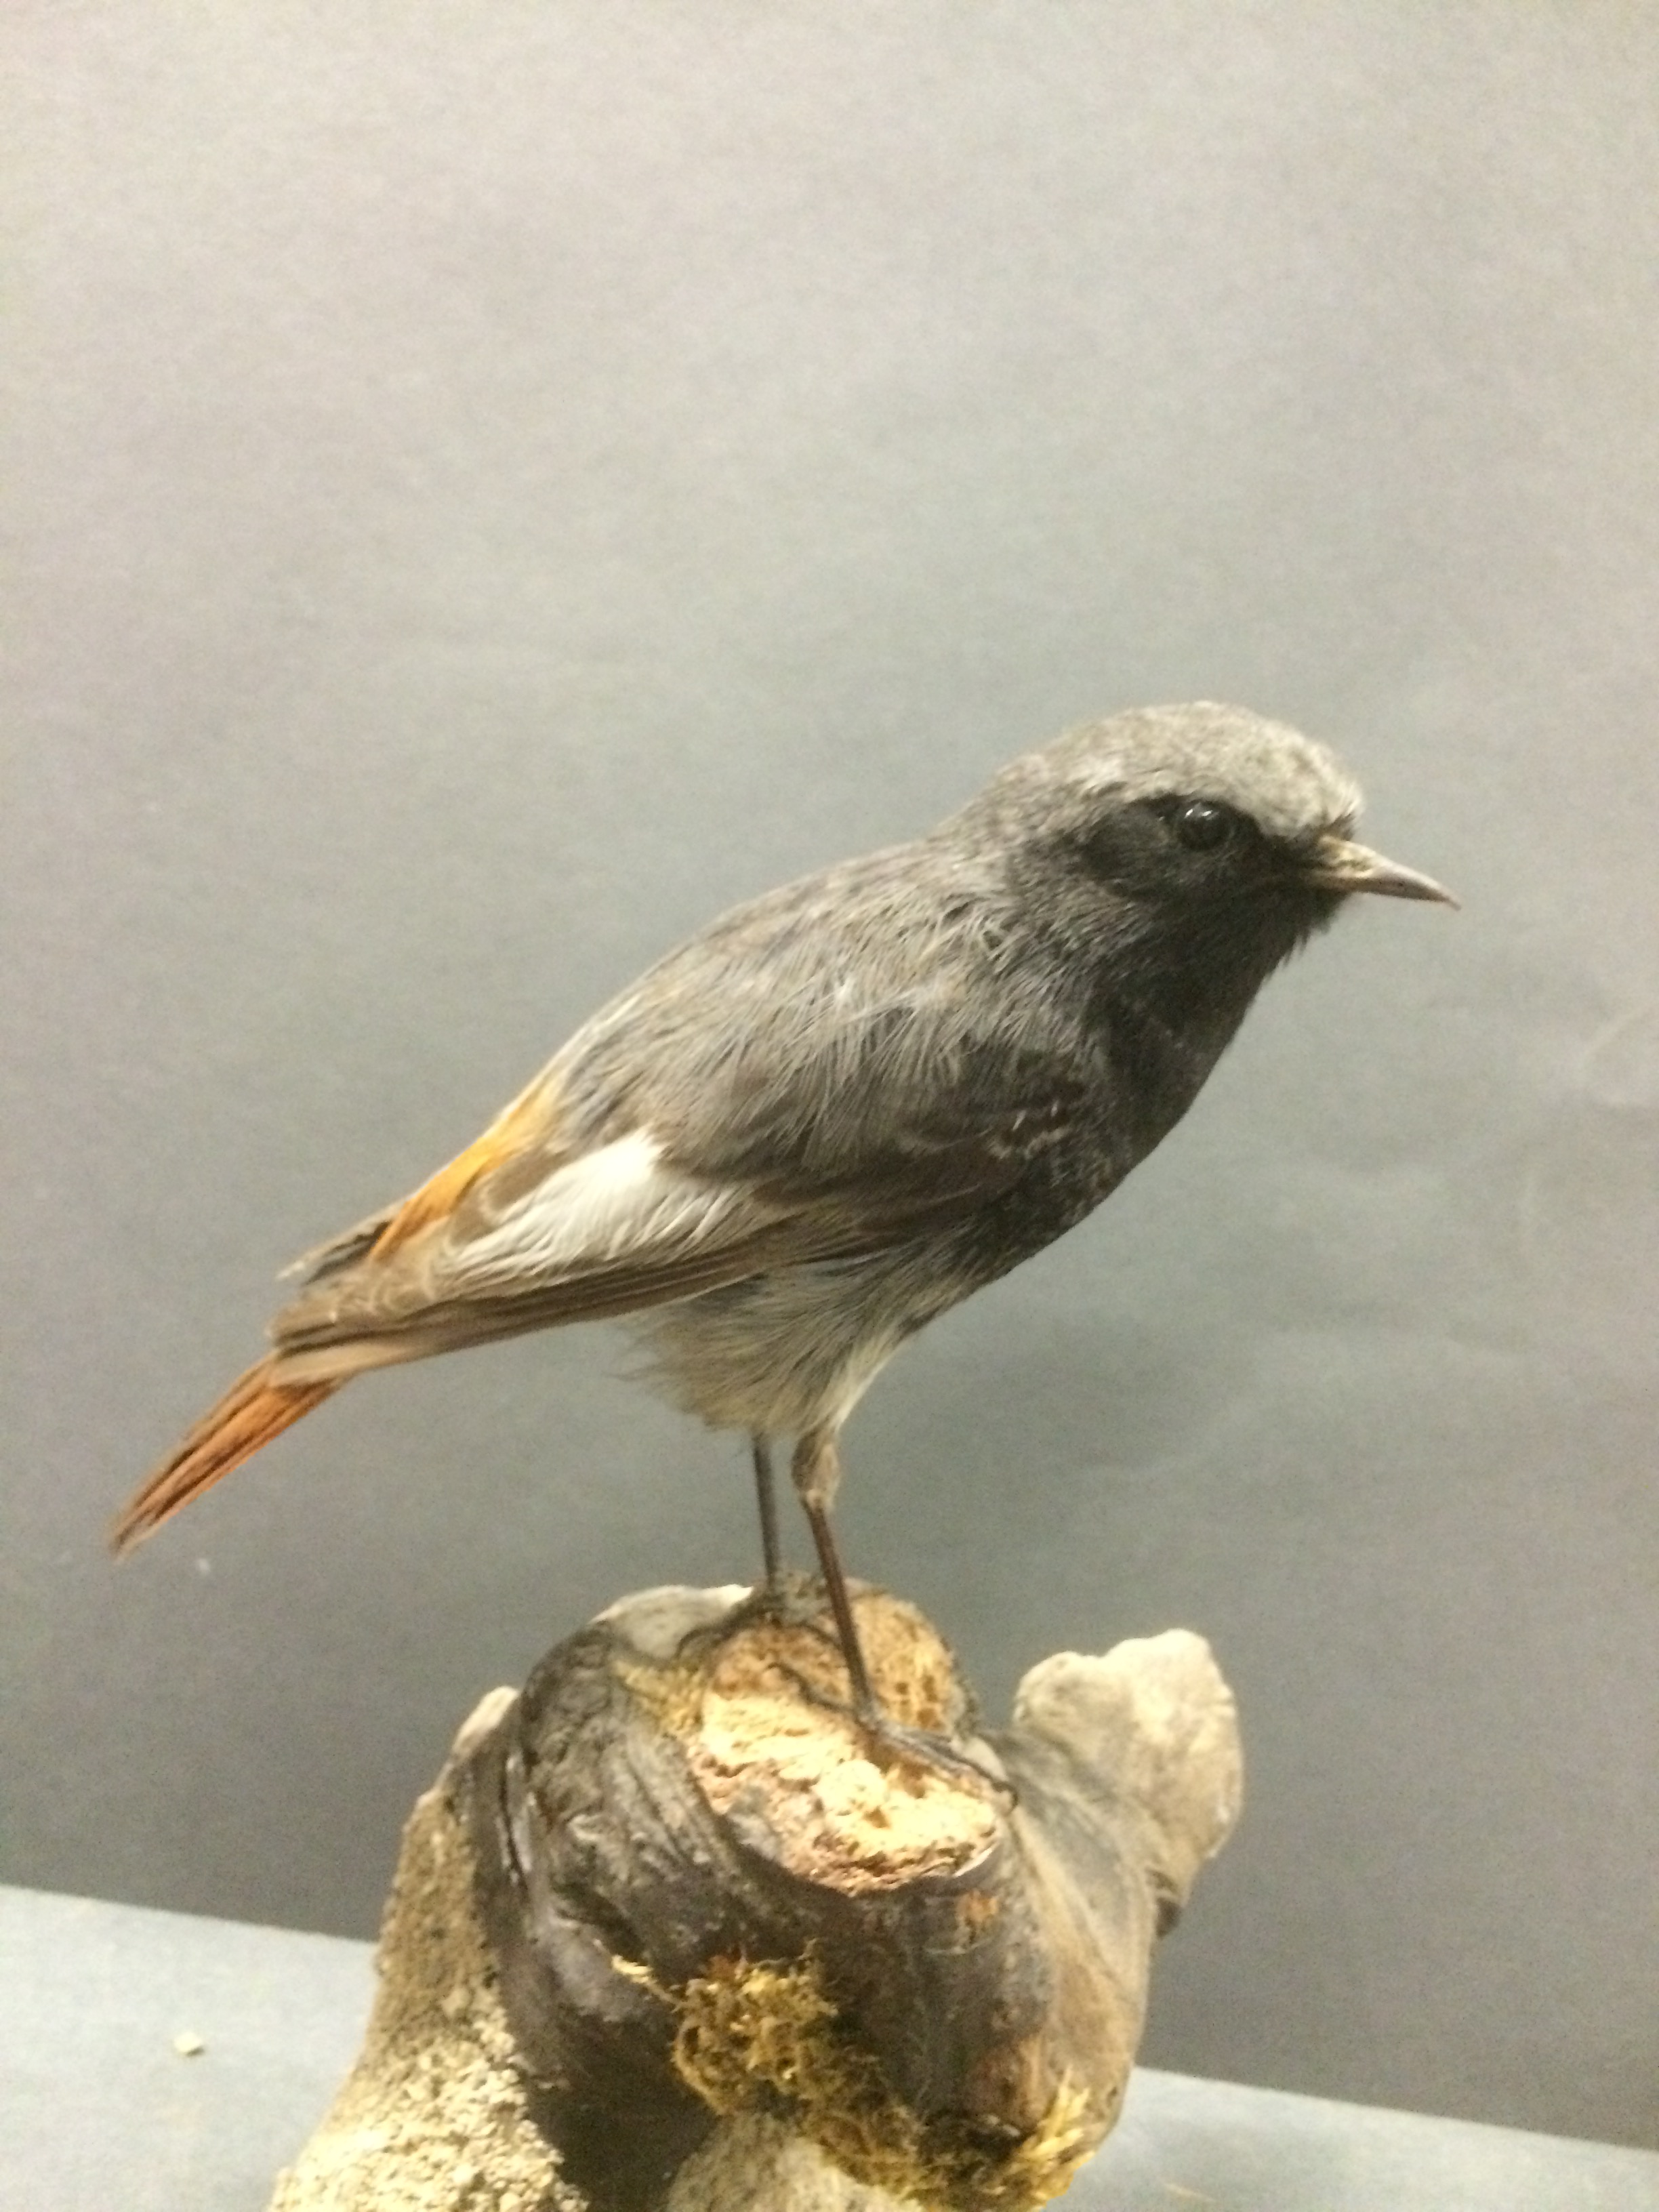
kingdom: Animalia
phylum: Chordata
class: Aves
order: Passeriformes
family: Muscicapidae
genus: Phoenicurus
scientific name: Phoenicurus ochruros
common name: Black redstart
